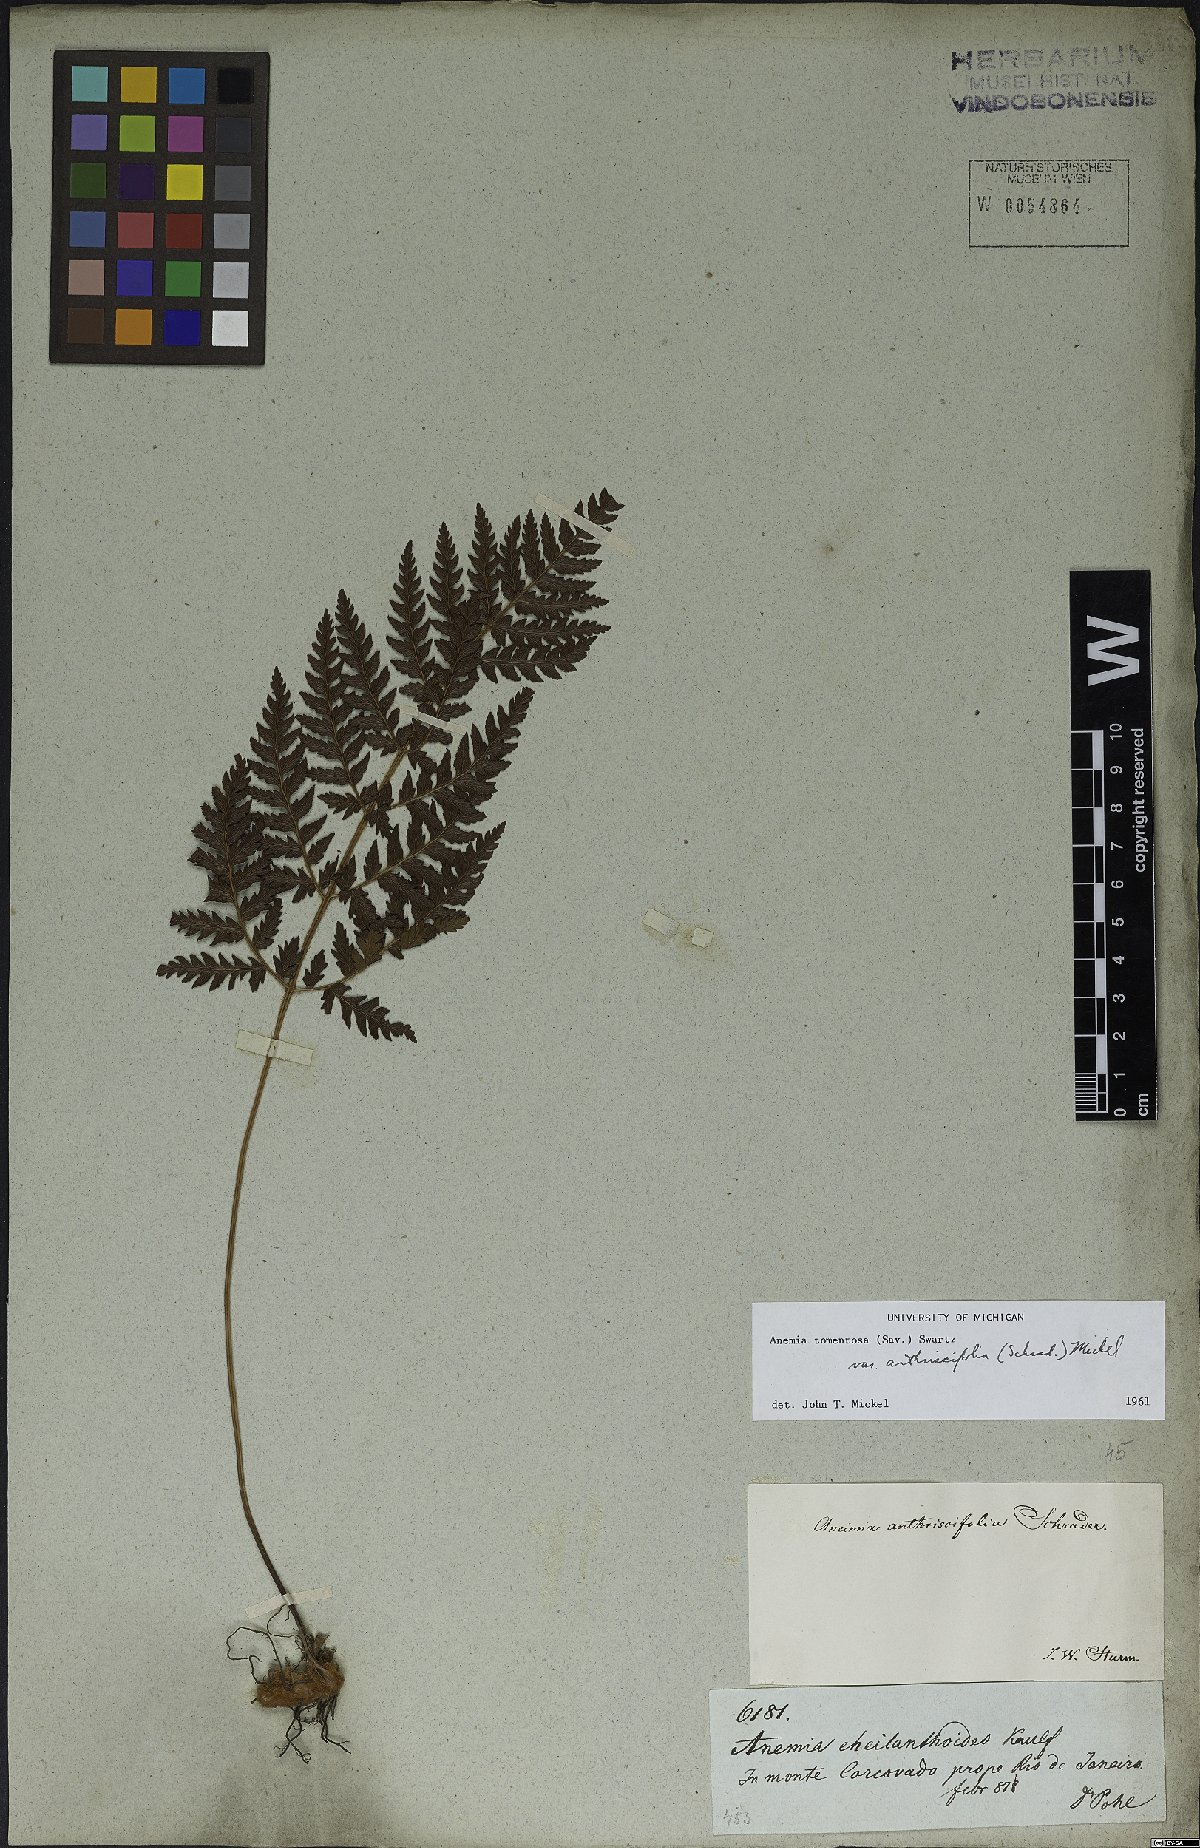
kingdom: Plantae
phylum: Tracheophyta
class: Polypodiopsida
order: Schizaeales
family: Anemiaceae
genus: Anemia
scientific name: Anemia tomentosa
